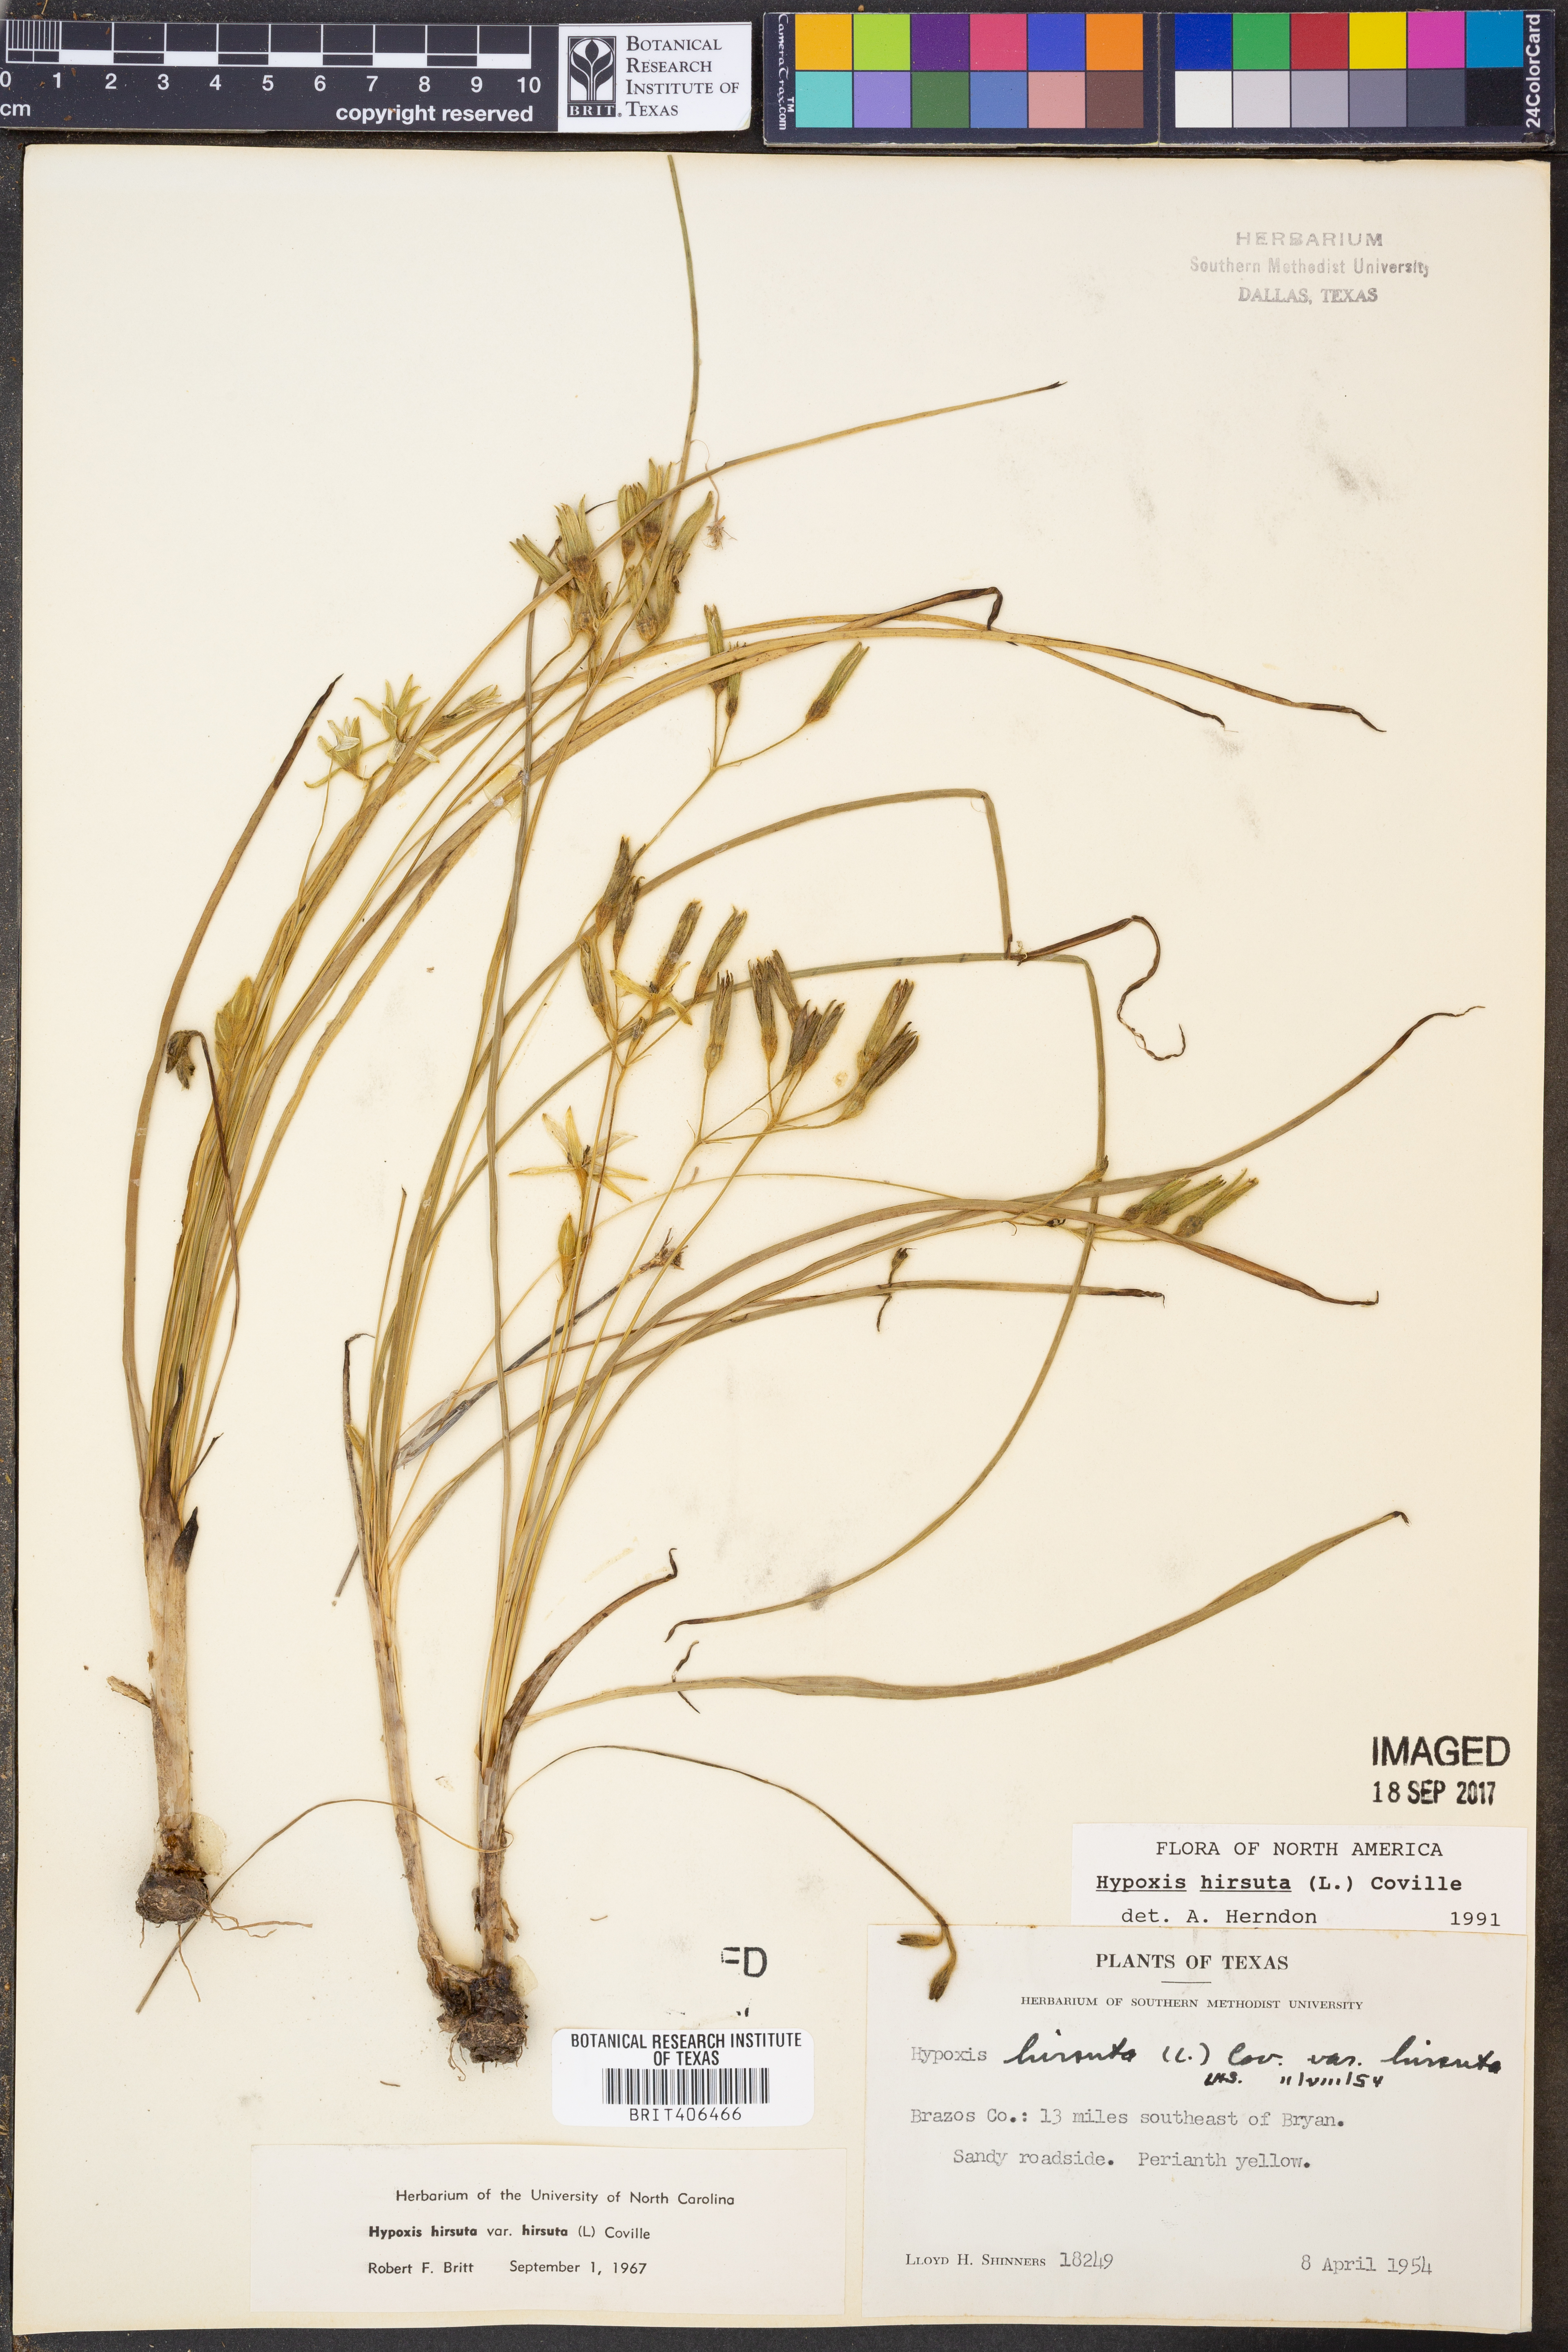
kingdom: Plantae
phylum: Tracheophyta
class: Liliopsida
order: Asparagales
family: Hypoxidaceae
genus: Hypoxis
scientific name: Hypoxis hirsuta
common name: Common goldstar
